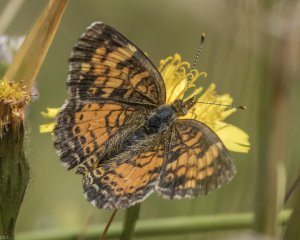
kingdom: Animalia
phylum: Arthropoda
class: Insecta
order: Lepidoptera
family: Nymphalidae
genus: Phyciodes
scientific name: Phyciodes tharos
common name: Northern Crescent
